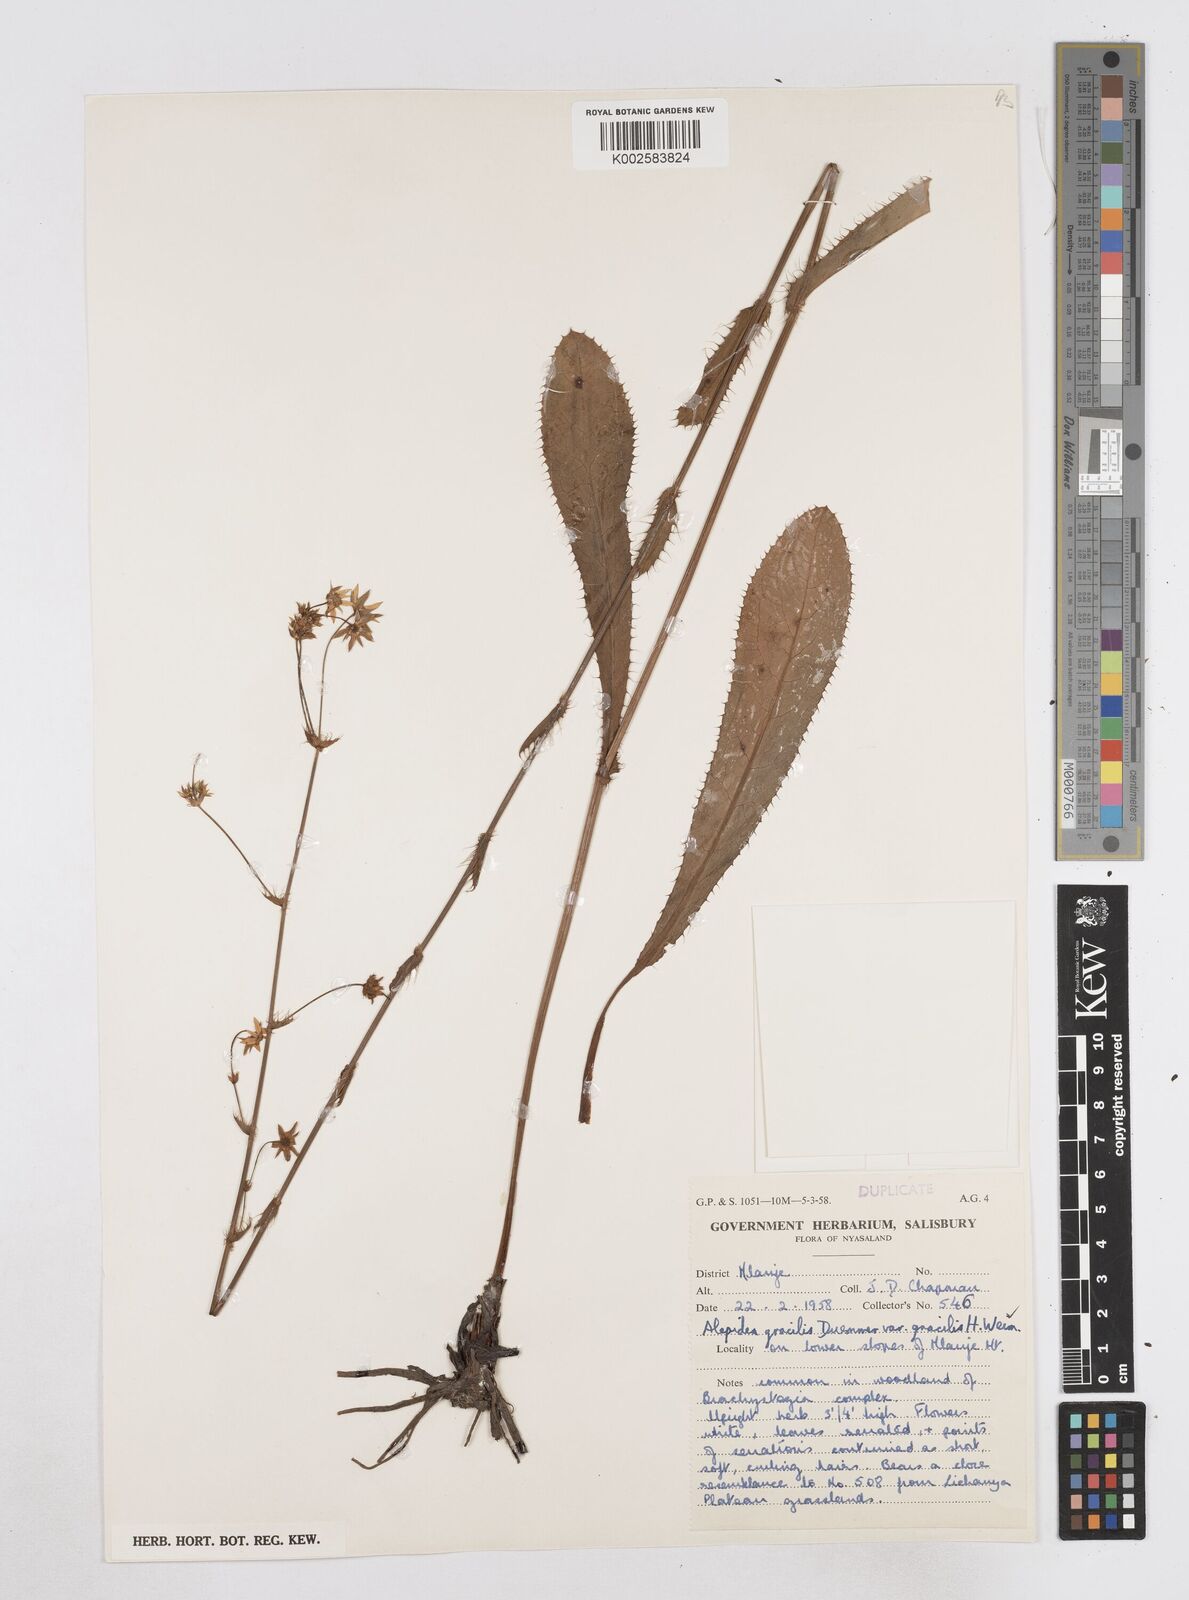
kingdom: Plantae
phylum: Tracheophyta
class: Magnoliopsida
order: Apiales
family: Apiaceae
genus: Alepidea
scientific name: Alepidea peduncularis
